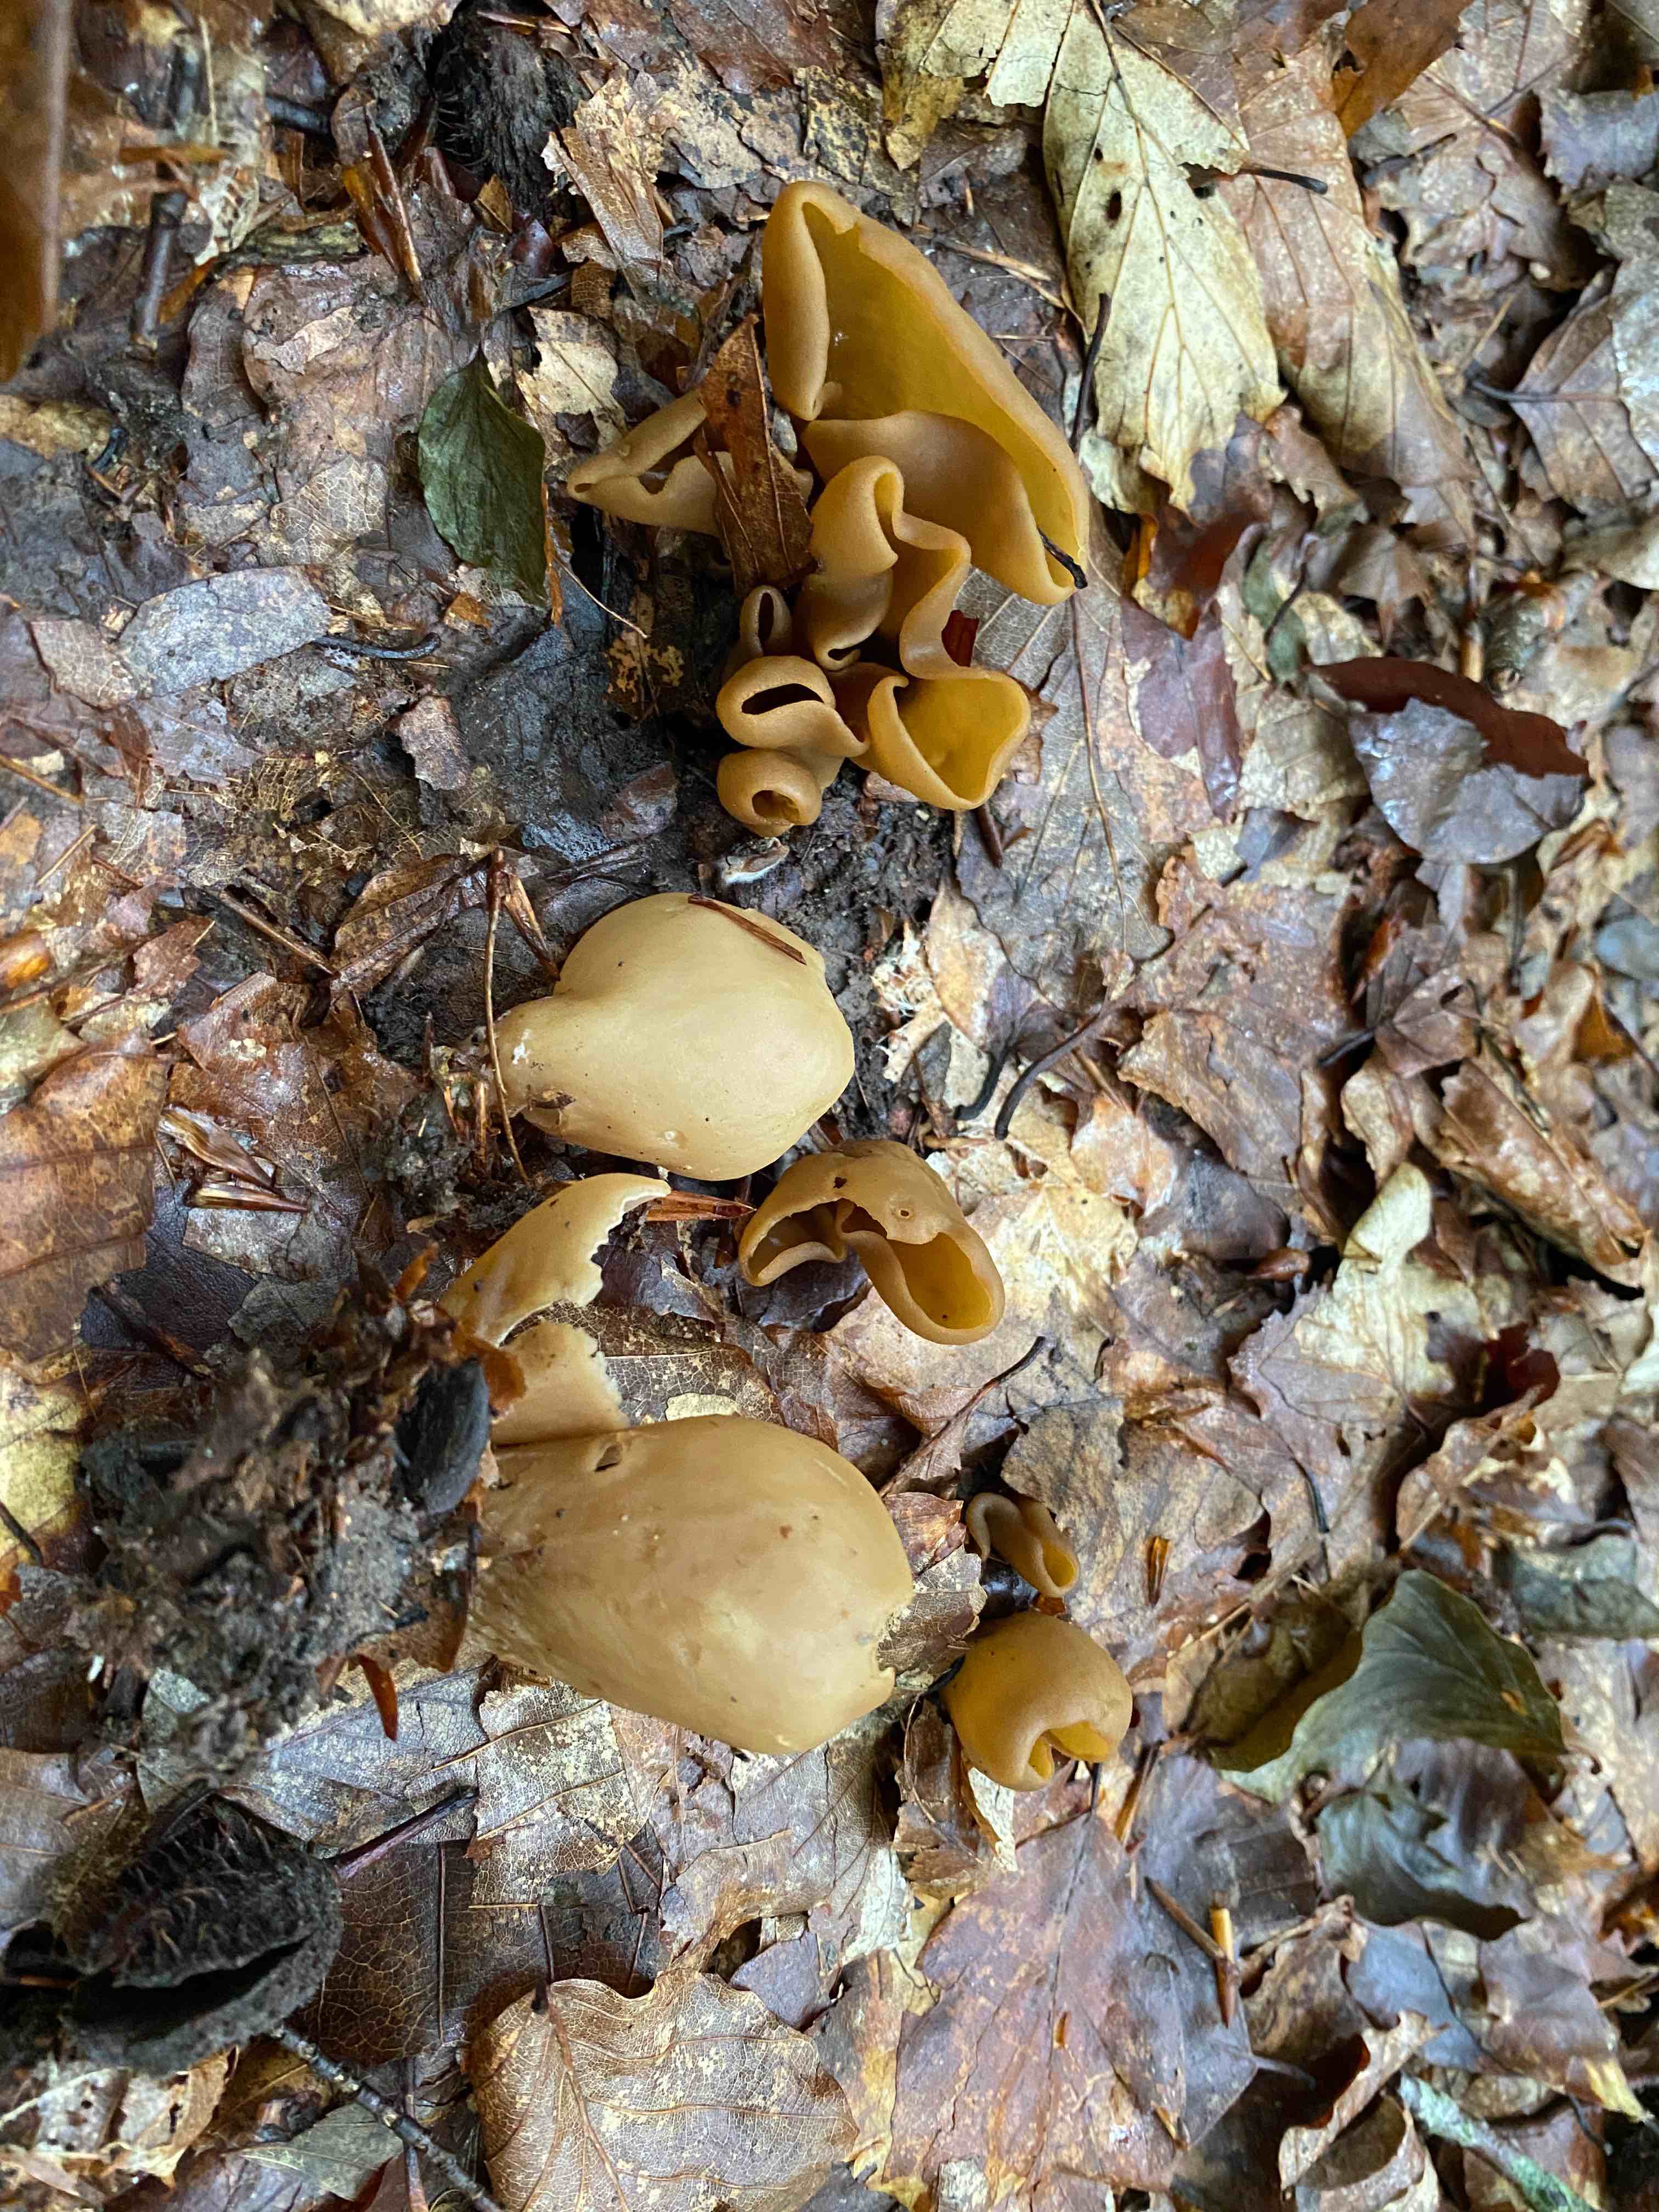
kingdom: Fungi
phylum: Ascomycota
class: Pezizomycetes
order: Pezizales
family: Otideaceae
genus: Otidea
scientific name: Otidea alutacea
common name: læder-ørebæger
